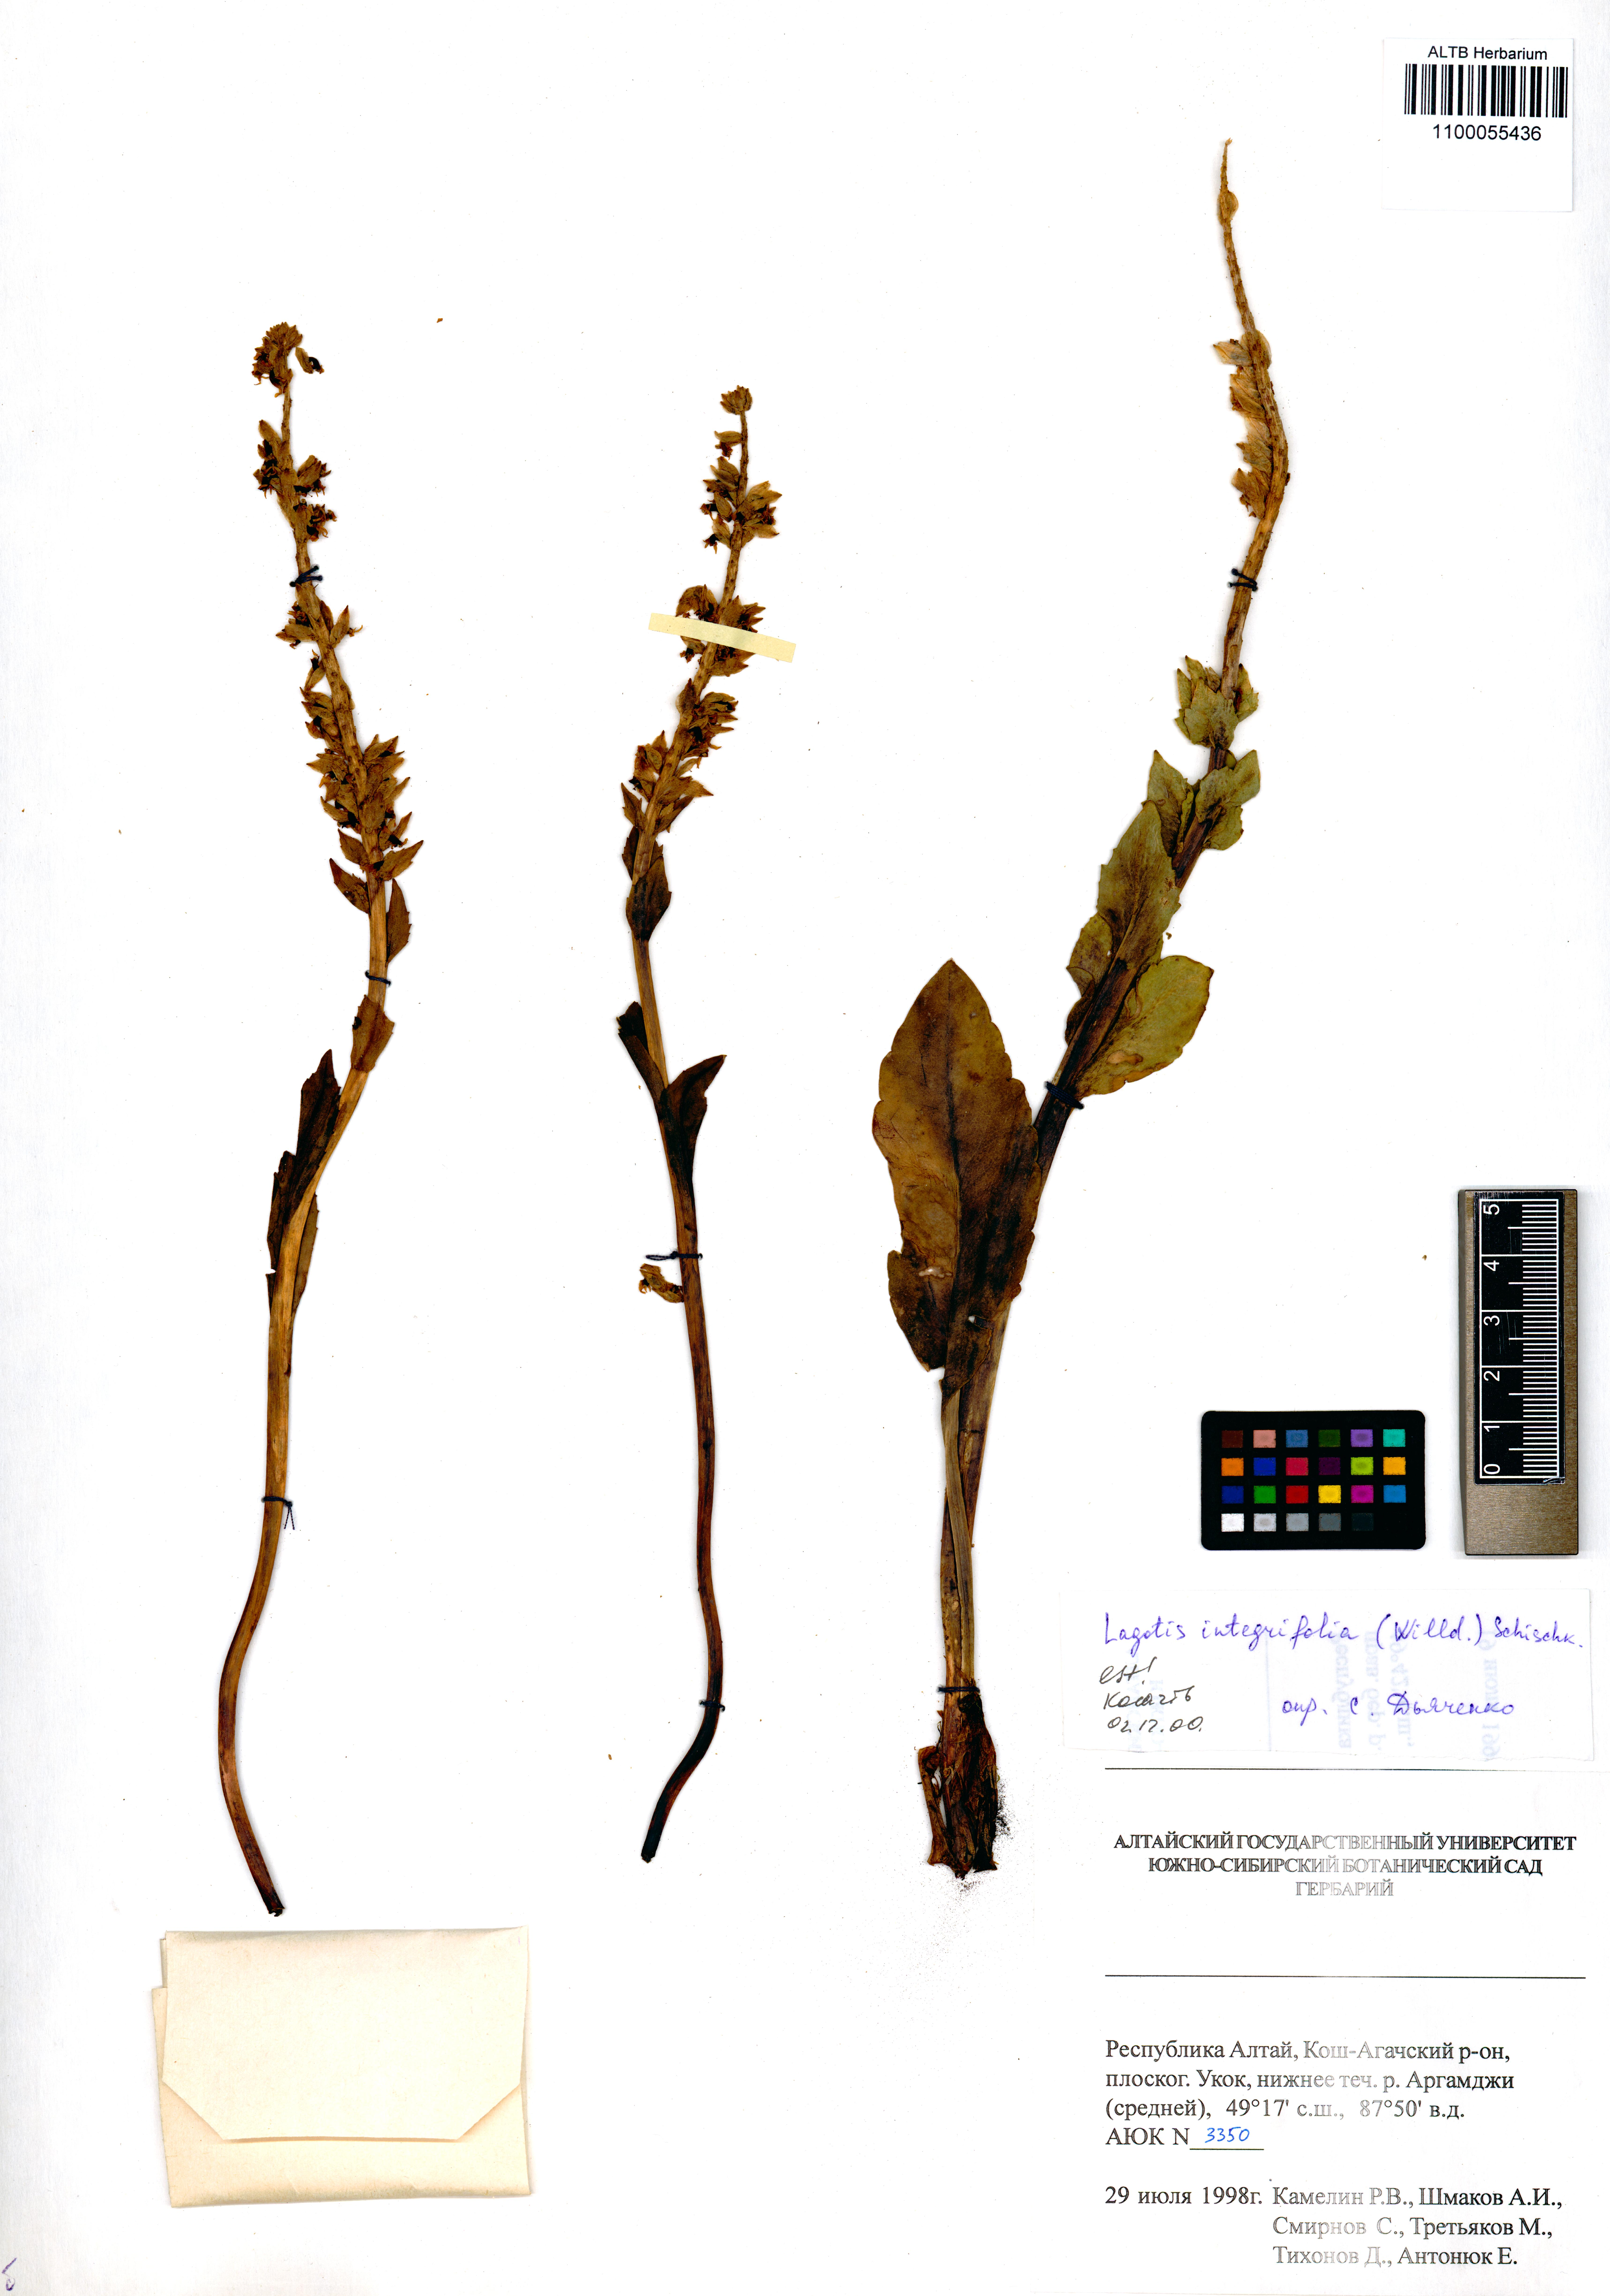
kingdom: Plantae
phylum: Tracheophyta
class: Magnoliopsida
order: Lamiales
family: Plantaginaceae
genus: Lagotis
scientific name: Lagotis integrifolia
